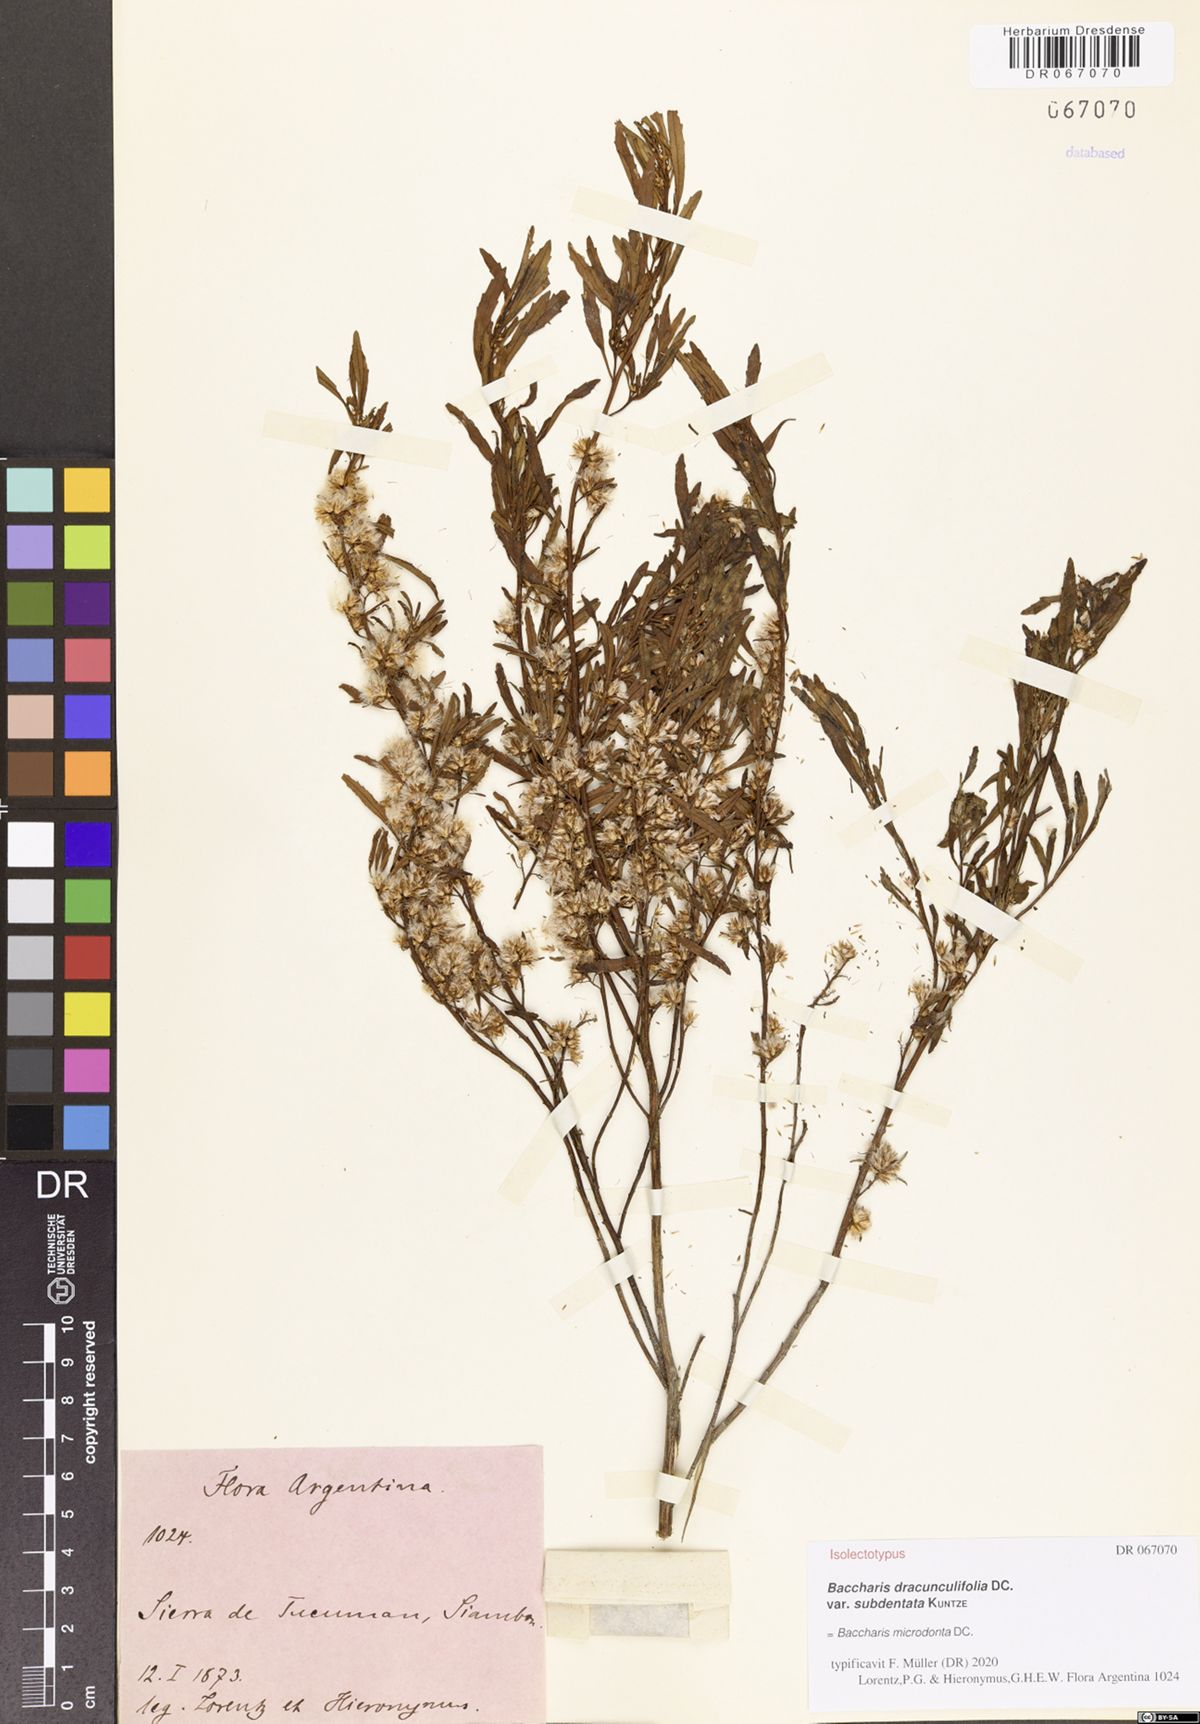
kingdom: Plantae
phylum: Tracheophyta
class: Magnoliopsida
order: Asterales
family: Asteraceae
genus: Baccharis
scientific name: Baccharis microdonta
